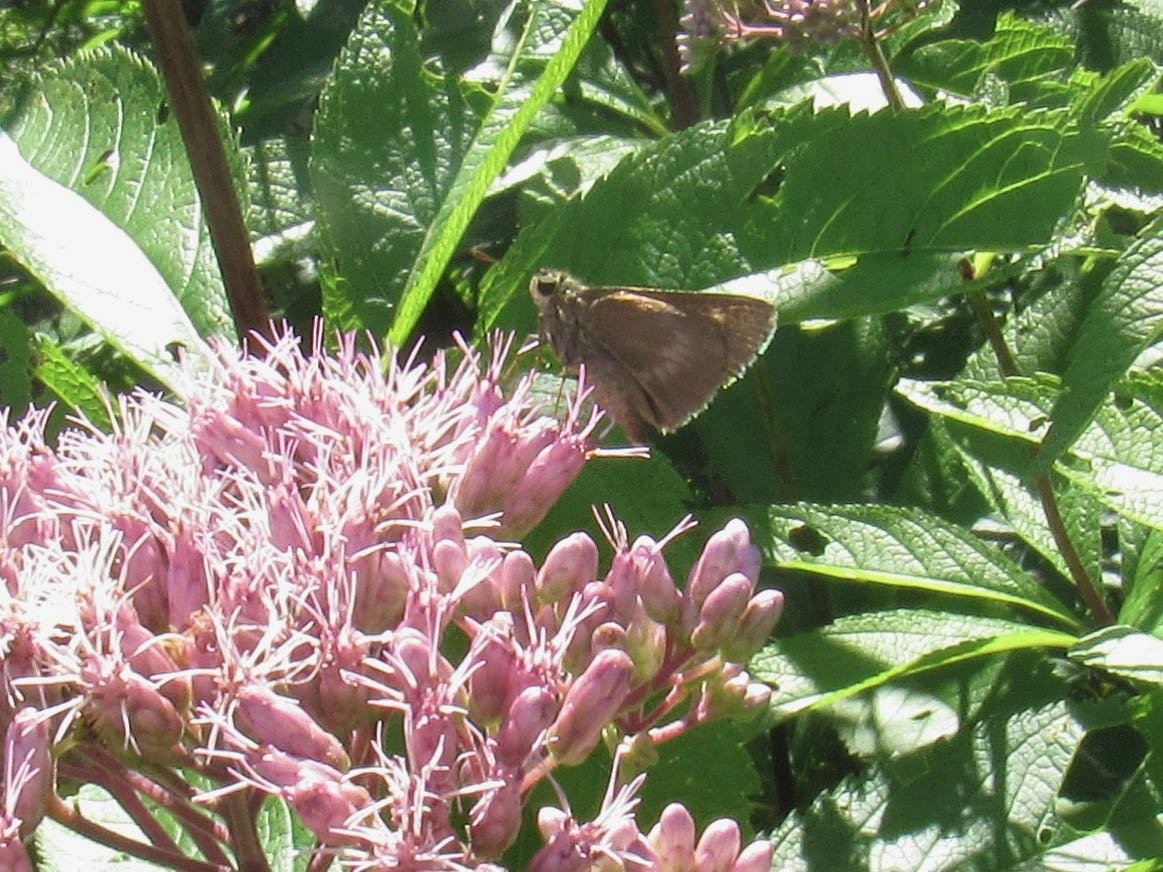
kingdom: Animalia
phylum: Arthropoda
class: Insecta
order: Lepidoptera
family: Hesperiidae
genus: Polites
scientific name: Polites egeremet
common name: Northern Broken-Dash
